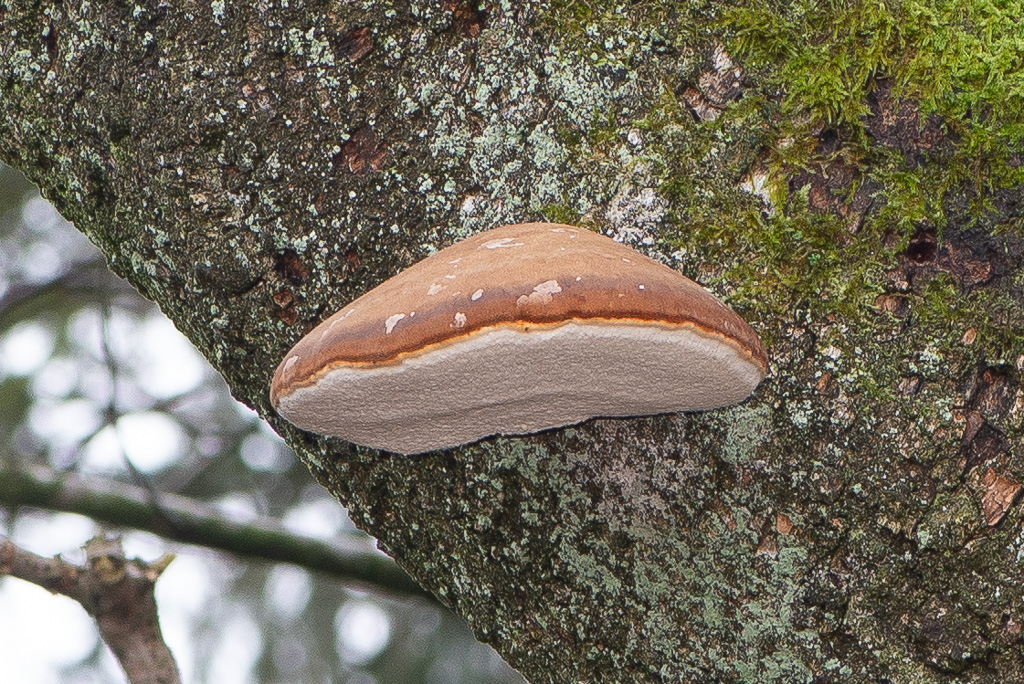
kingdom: Fungi
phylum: Basidiomycota
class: Agaricomycetes
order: Polyporales
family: Fomitopsidaceae
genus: Fomitopsis
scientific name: Fomitopsis betulina
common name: birkeporesvamp
